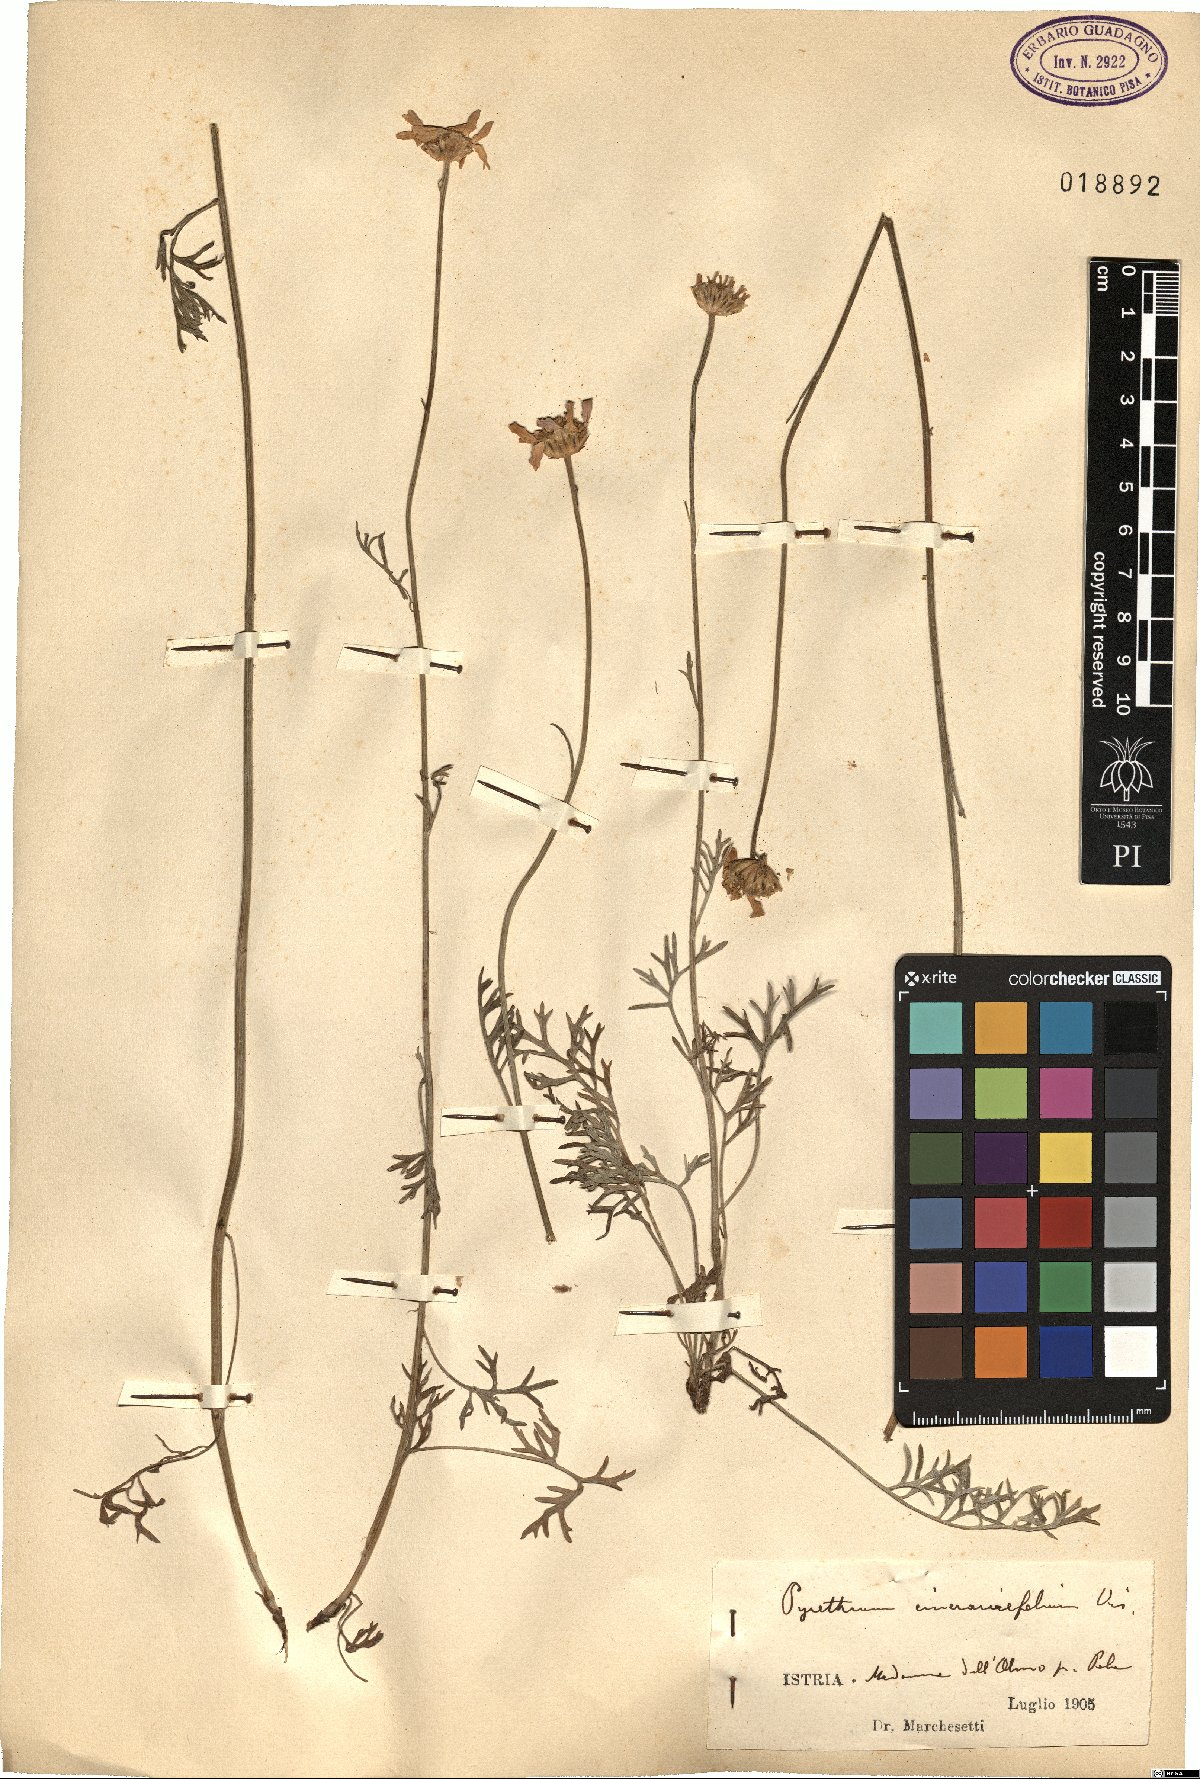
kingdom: Plantae
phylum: Tracheophyta
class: Magnoliopsida
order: Asterales
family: Asteraceae
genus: Tanacetum
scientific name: Tanacetum cinerariifolium
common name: Dalmatian pyrethrum
